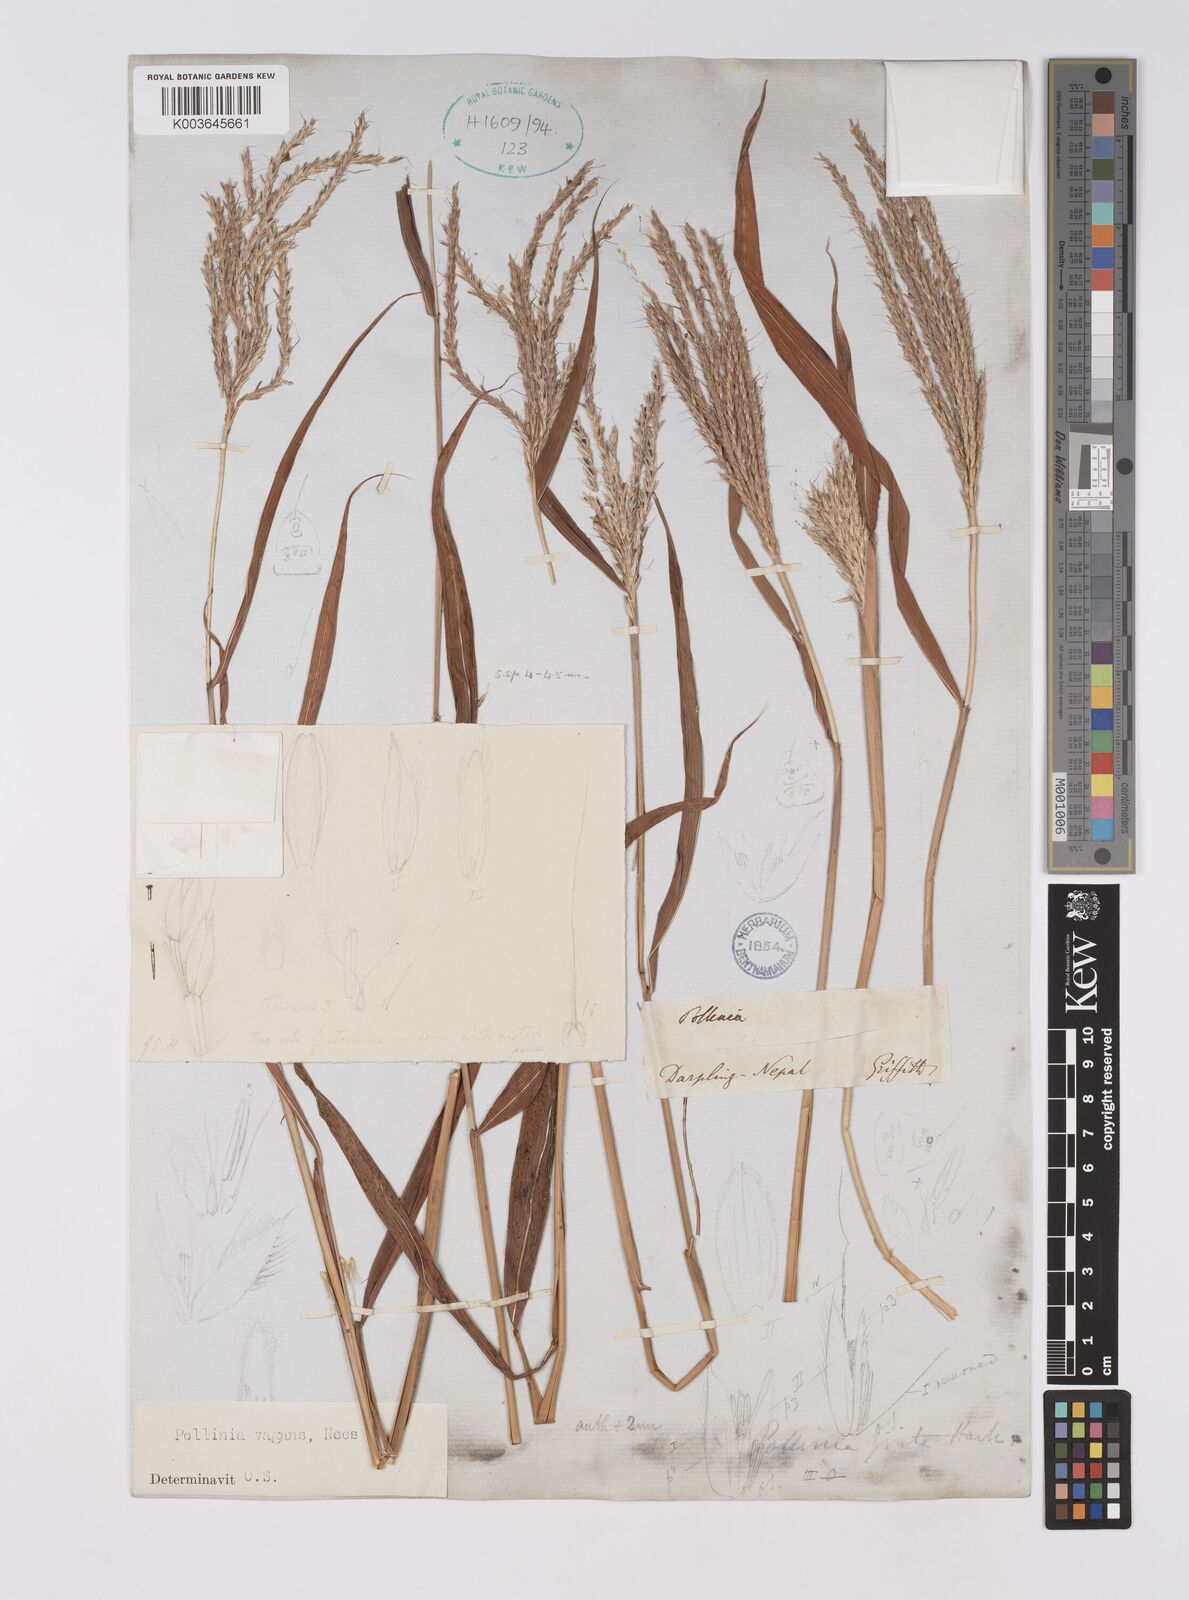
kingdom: Plantae
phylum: Tracheophyta
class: Liliopsida
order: Poales
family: Poaceae
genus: Microstegium
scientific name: Microstegium fasciculatum
